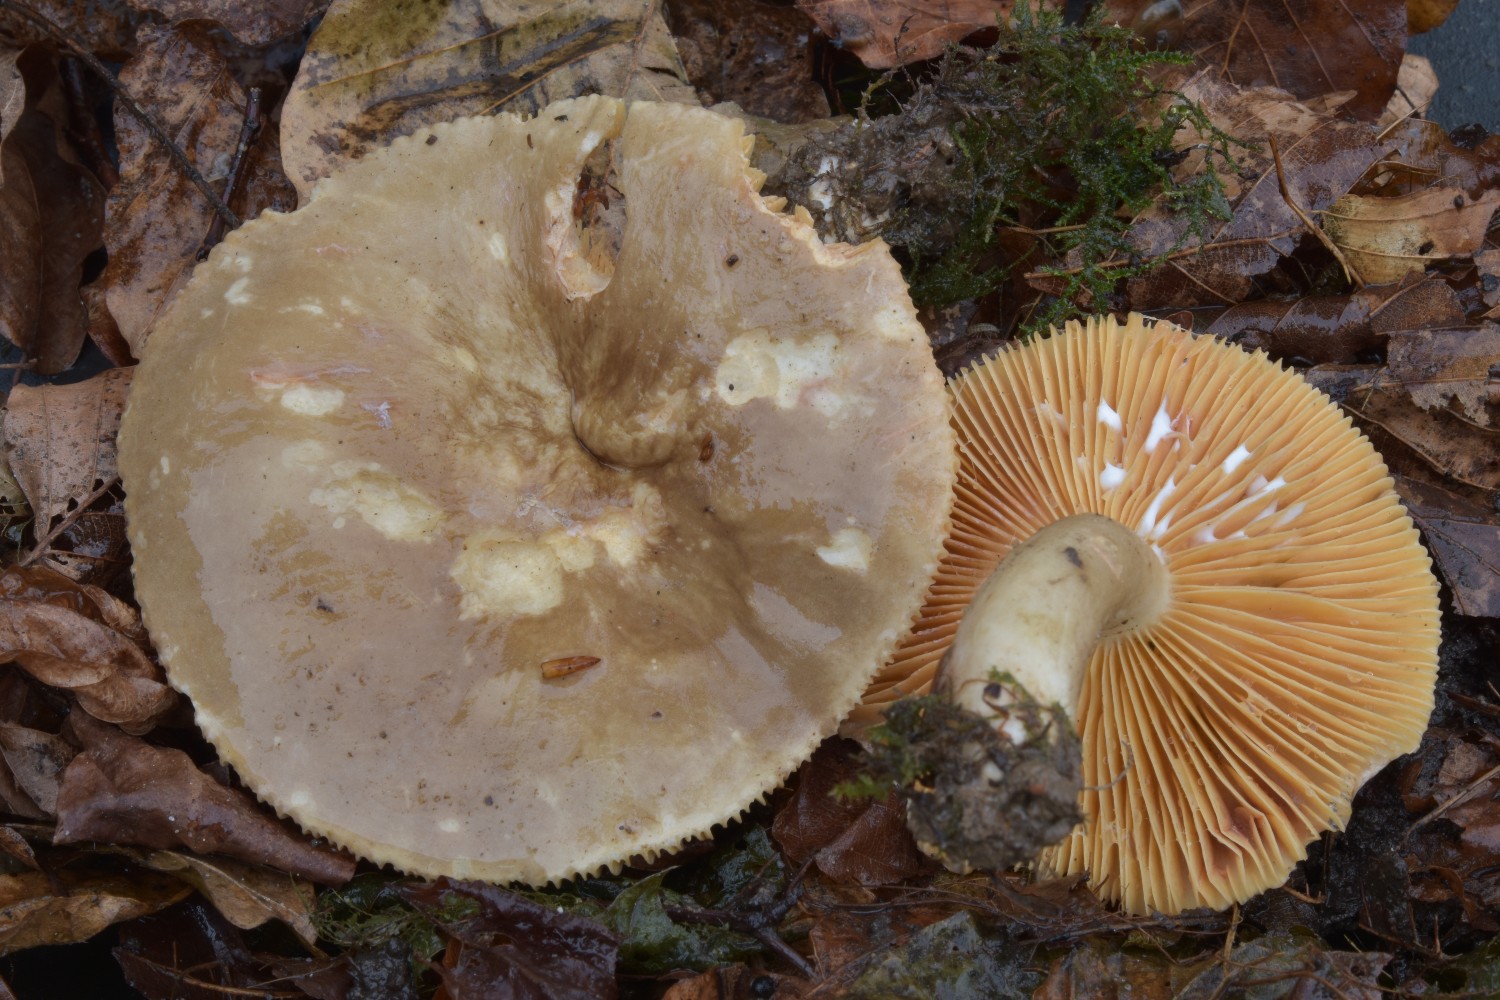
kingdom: Fungi
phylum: Basidiomycota
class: Agaricomycetes
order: Russulales
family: Russulaceae
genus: Lactarius
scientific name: Lactarius pterosporus
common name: vingesporet mælkehat
